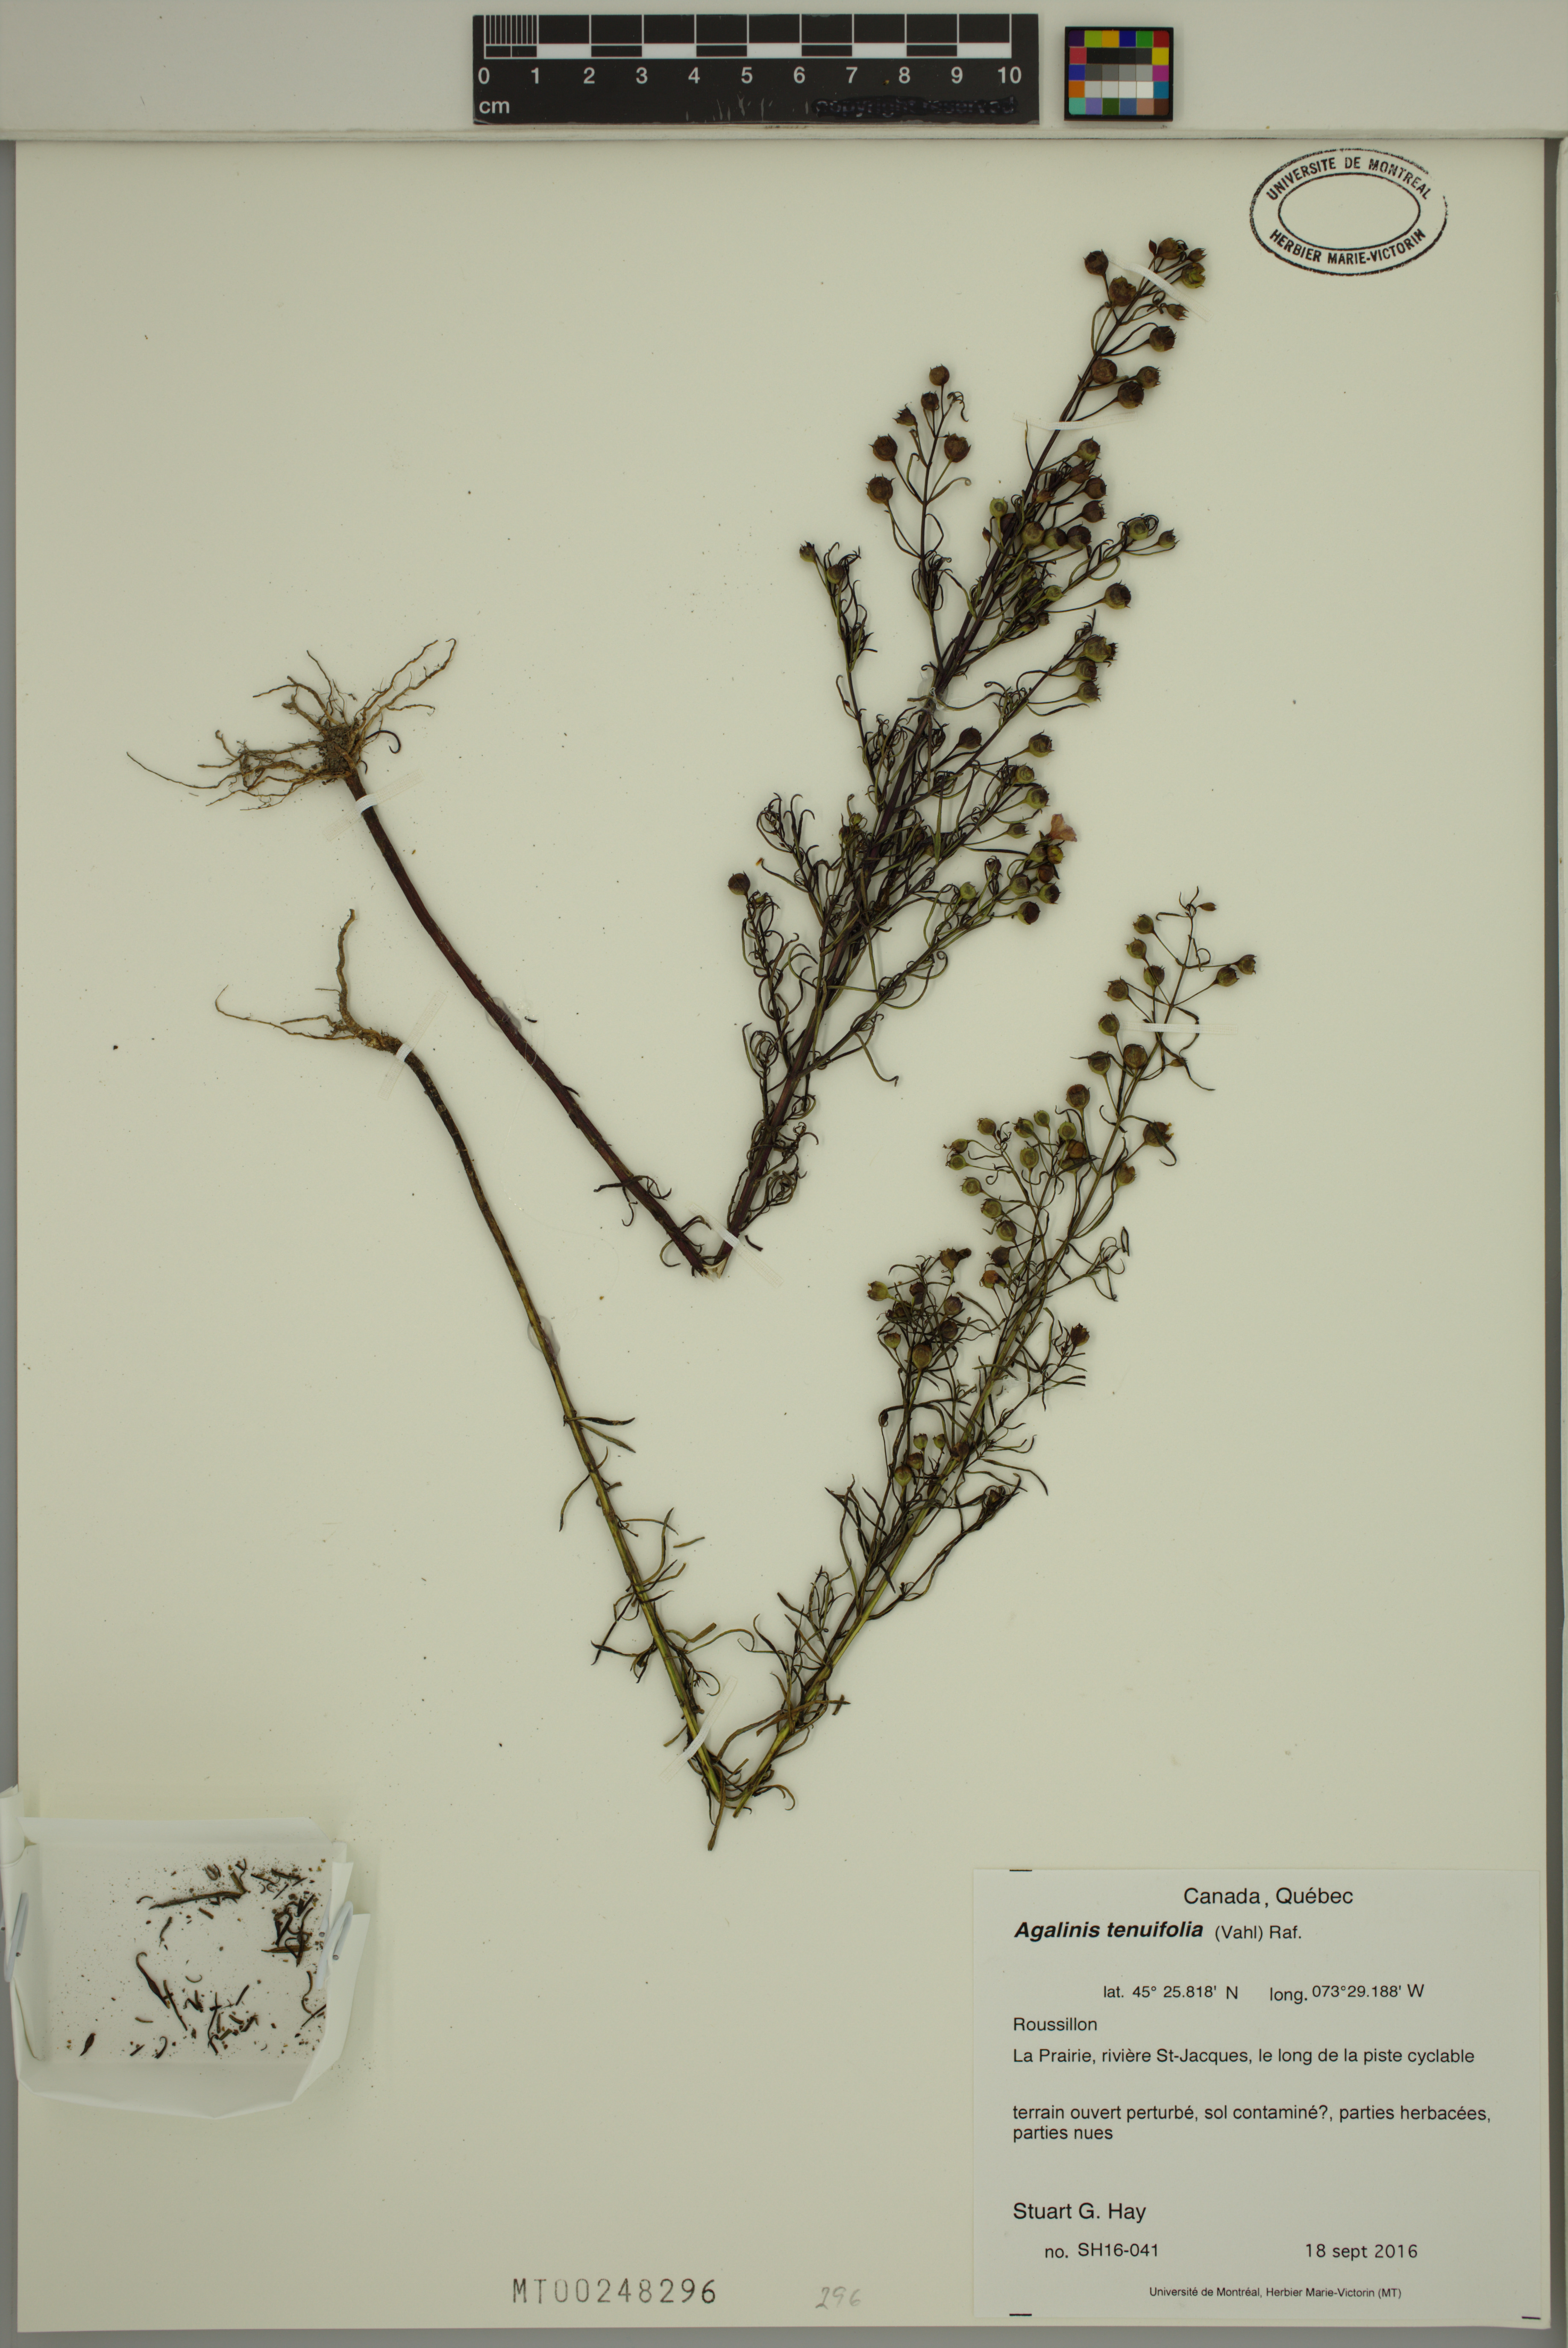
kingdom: Plantae
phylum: Tracheophyta
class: Magnoliopsida
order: Lamiales
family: Orobanchaceae
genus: Agalinis
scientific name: Agalinis tenuifolia
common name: Slender agalinis
